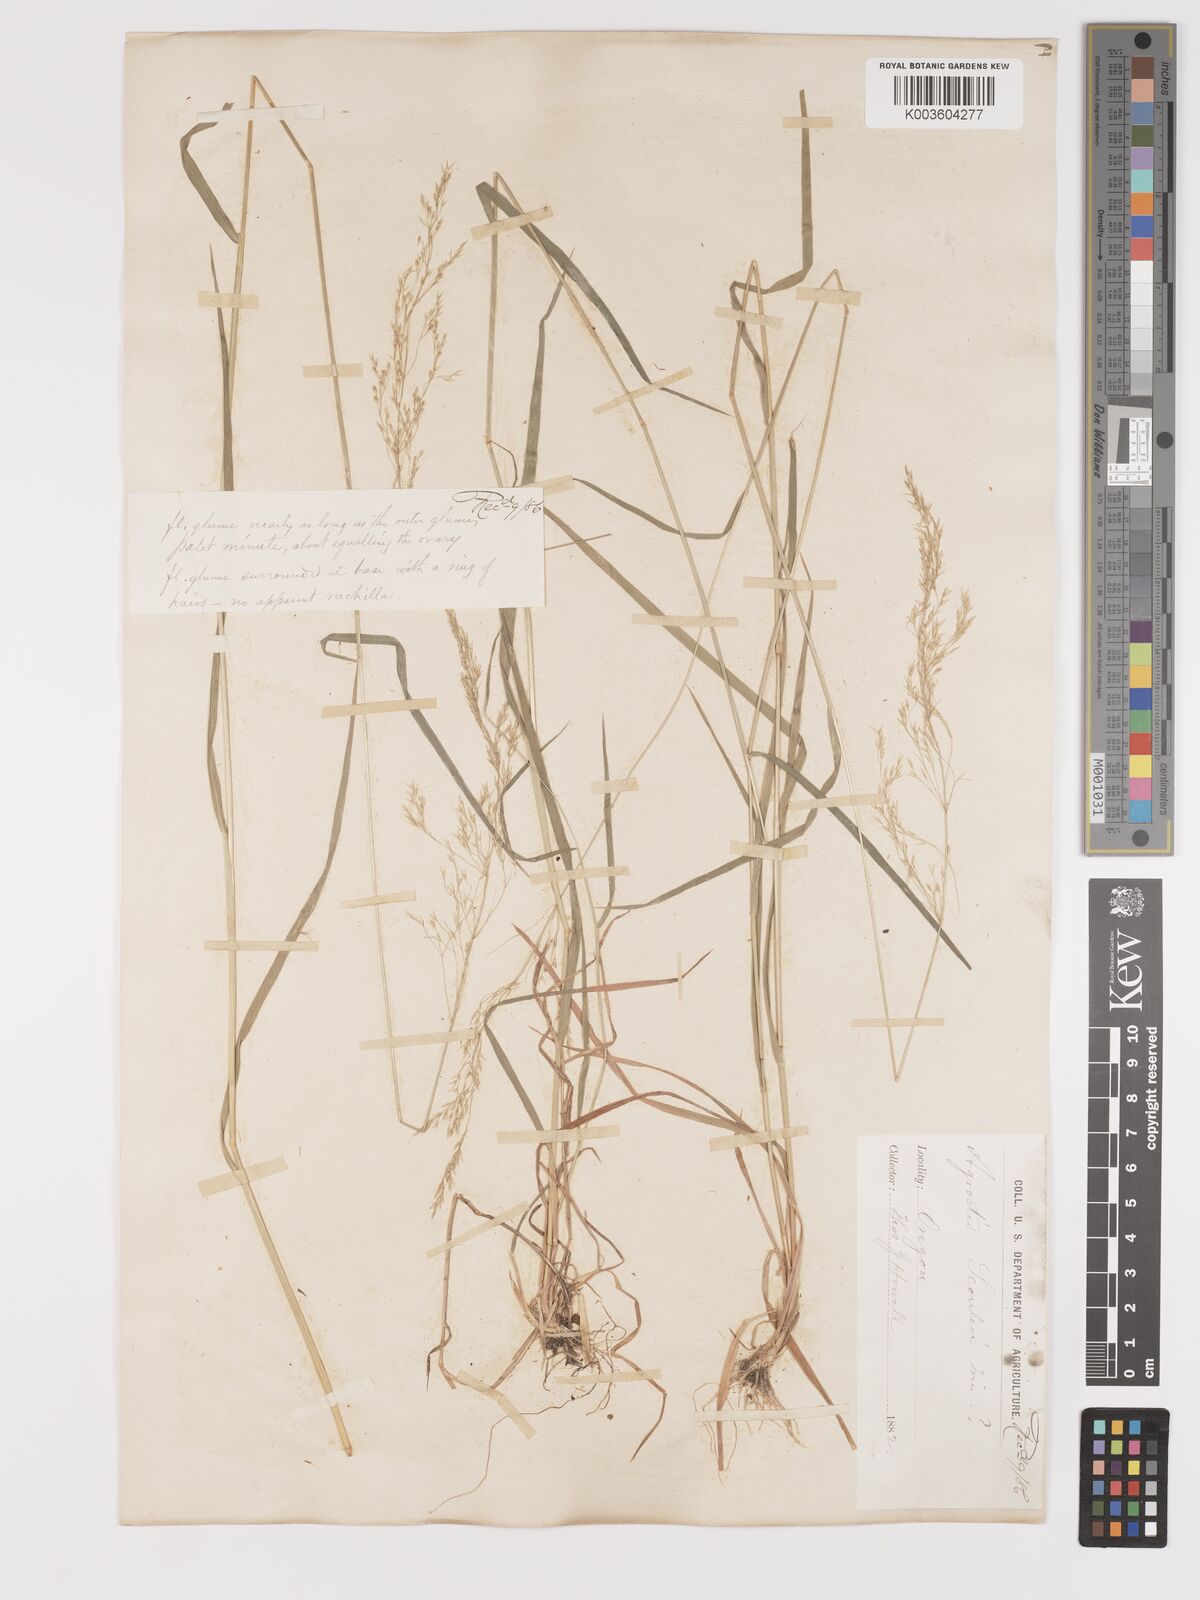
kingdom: Plantae
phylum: Tracheophyta
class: Liliopsida
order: Poales
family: Poaceae
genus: Agrostis
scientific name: Agrostis exarata
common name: Spike bent
